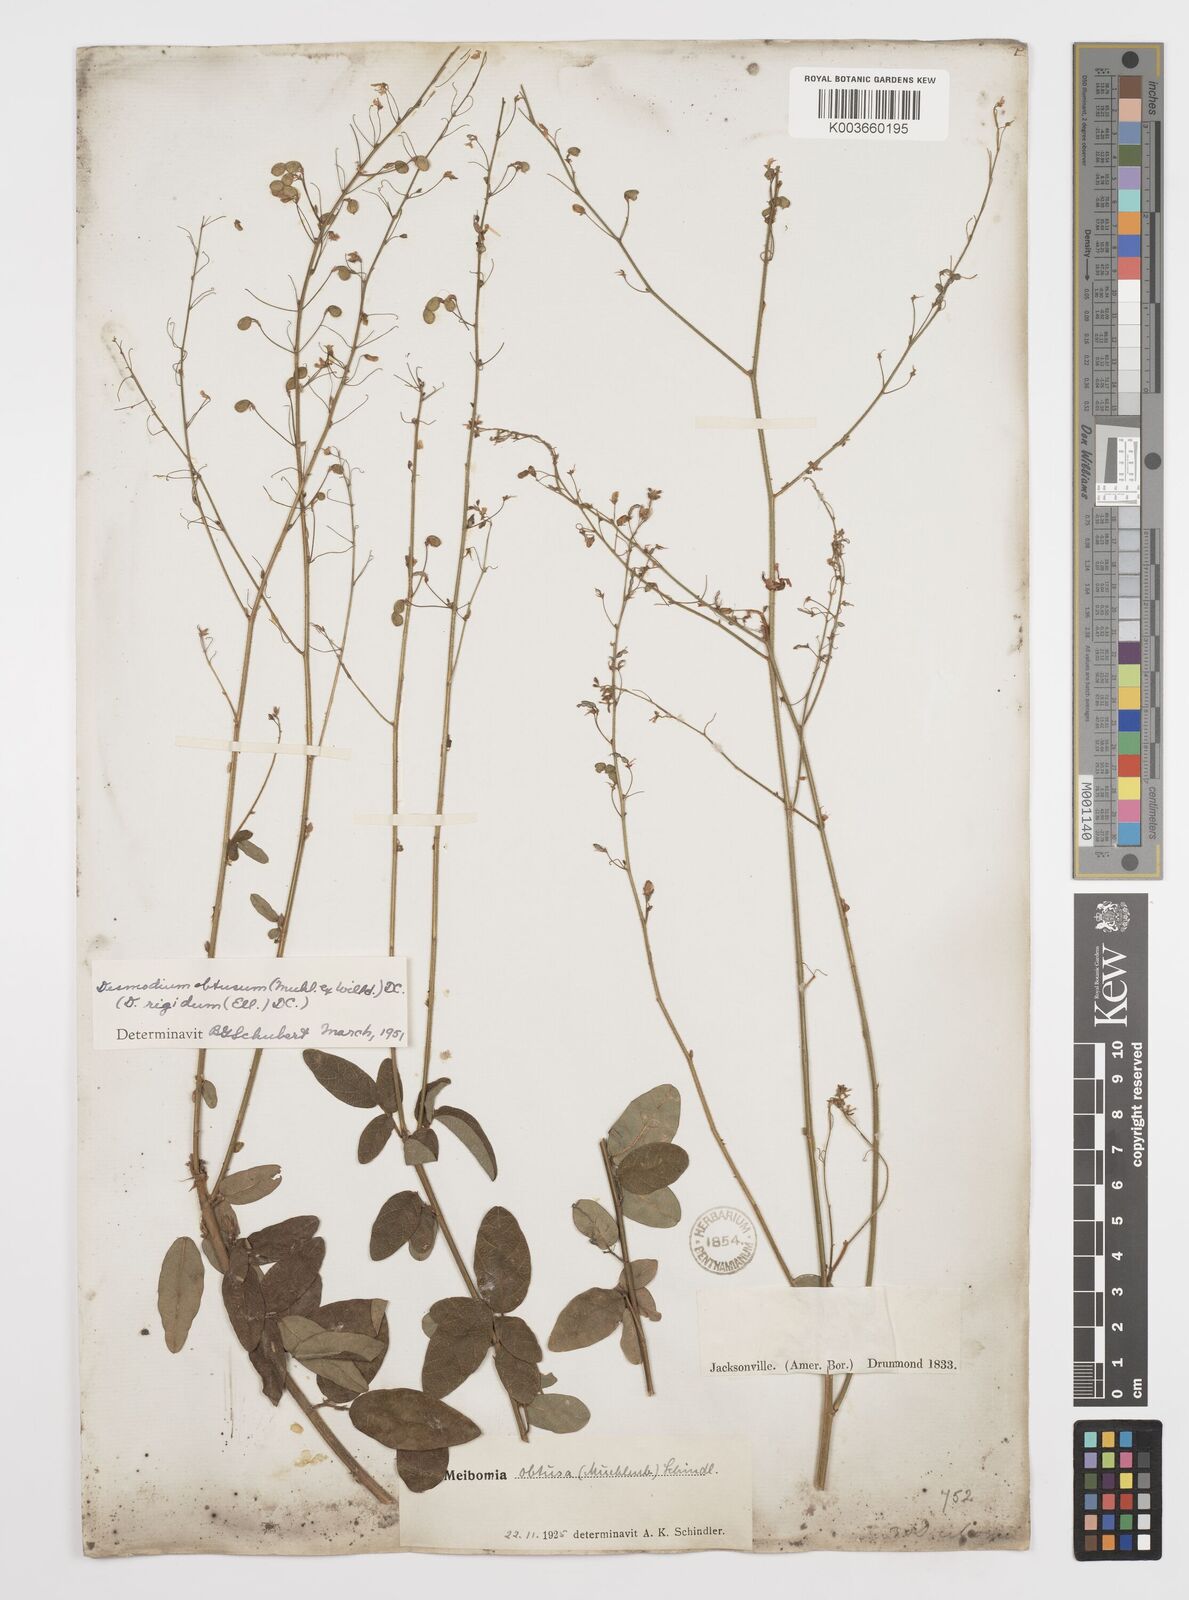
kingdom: Plantae
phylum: Tracheophyta
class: Magnoliopsida
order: Fabales
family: Fabaceae
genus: Desmodium
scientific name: Desmodium obtusum
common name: Stiff tick trefoil
